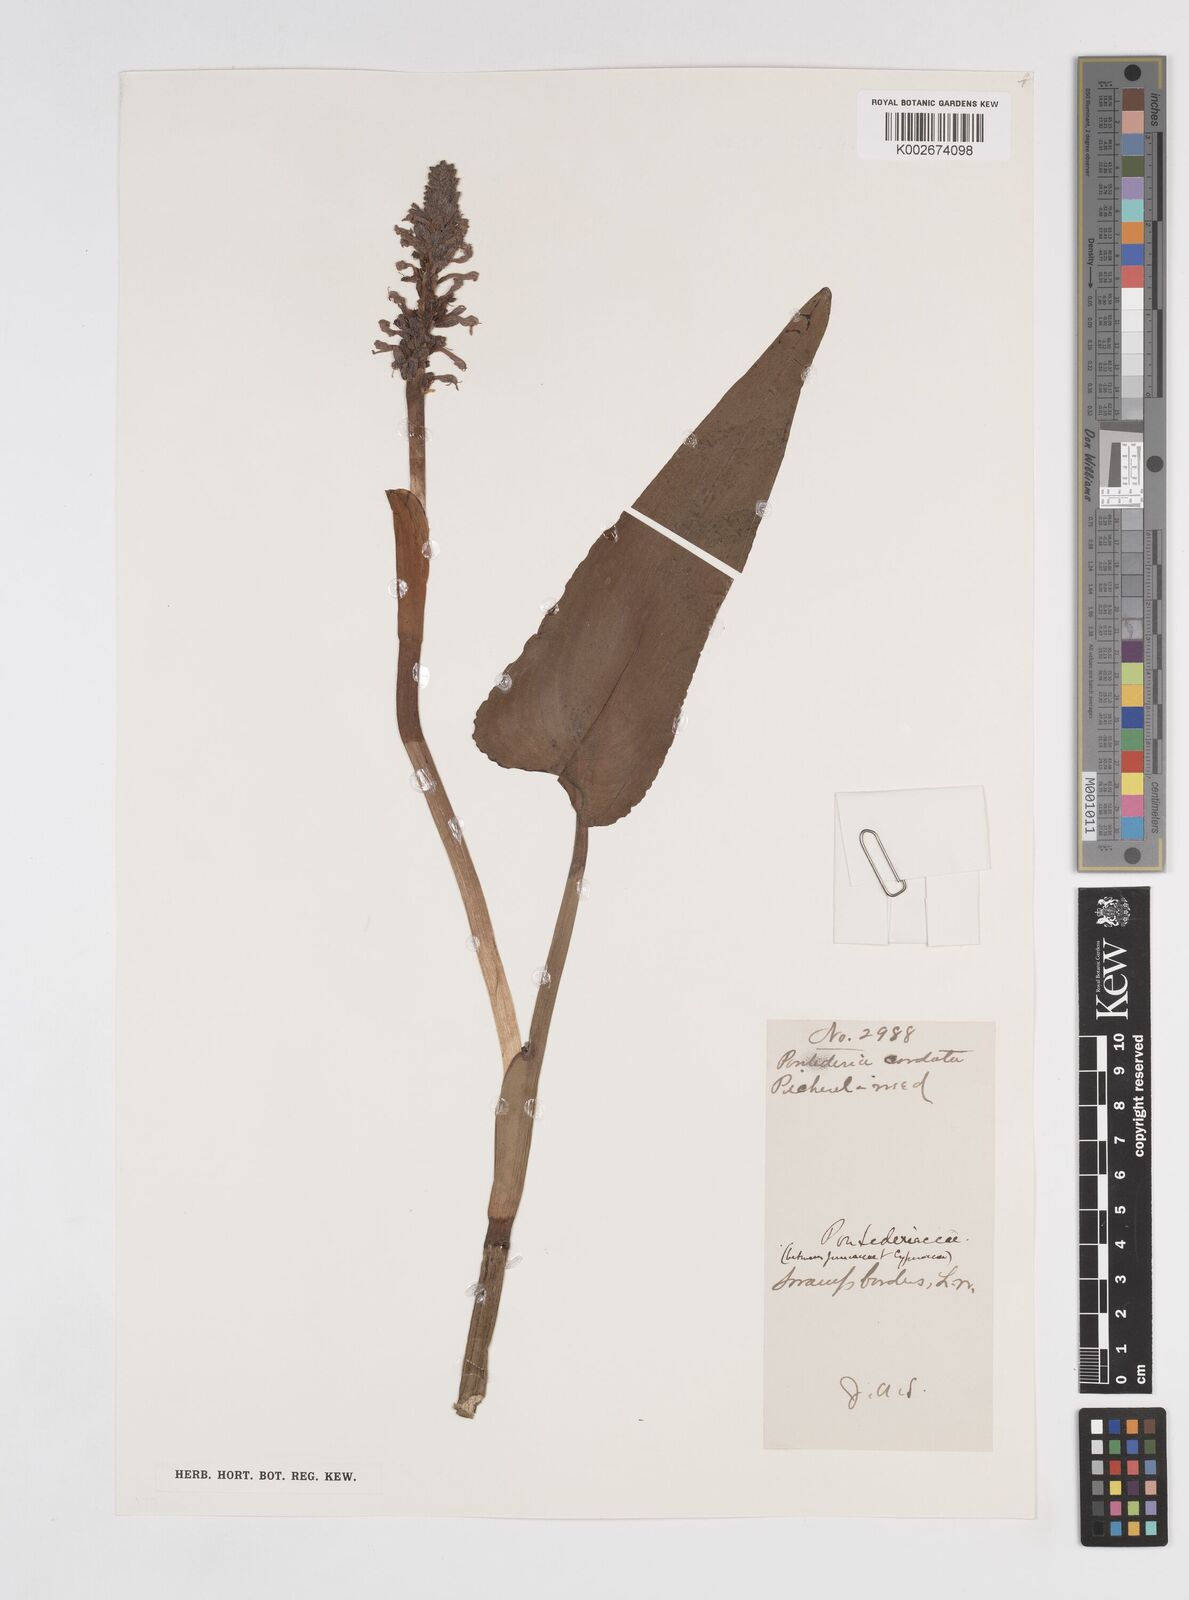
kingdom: Plantae
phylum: Tracheophyta
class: Liliopsida
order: Commelinales
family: Pontederiaceae
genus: Pontederia
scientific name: Pontederia cordata
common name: Pickerelweed
